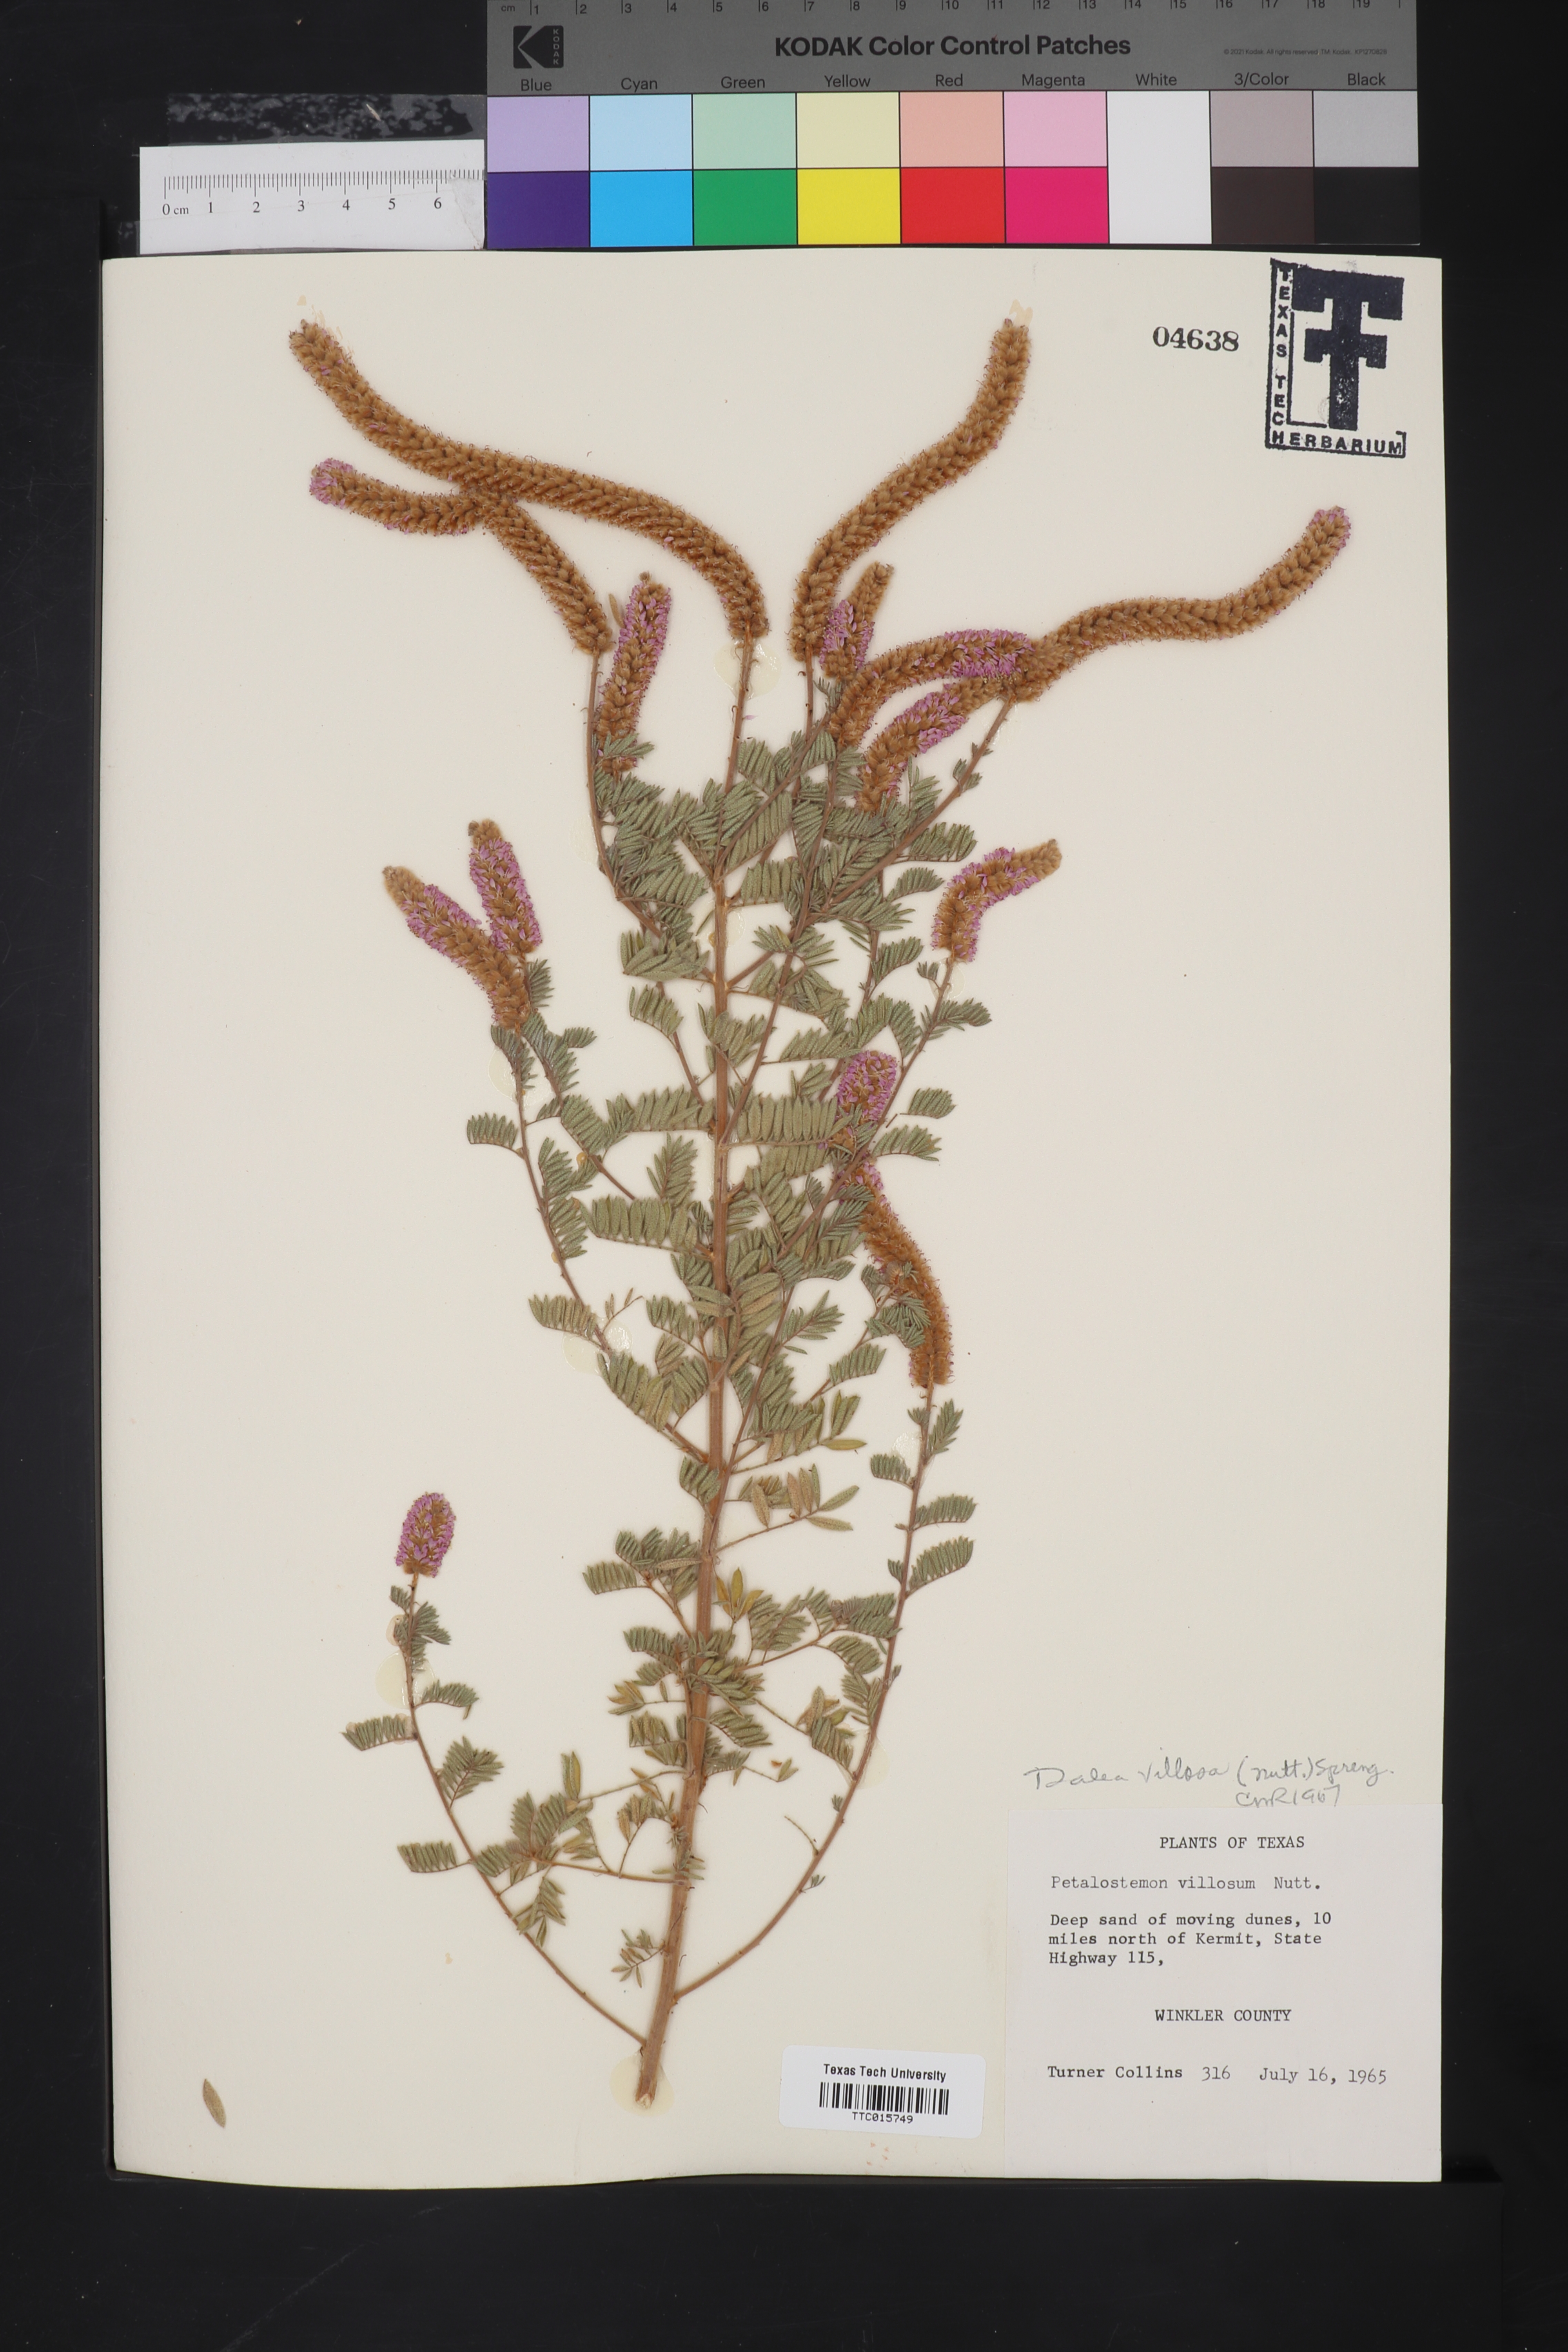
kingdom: Plantae
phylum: Tracheophyta
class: Magnoliopsida
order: Fabales
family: Fabaceae
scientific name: Fabaceae
